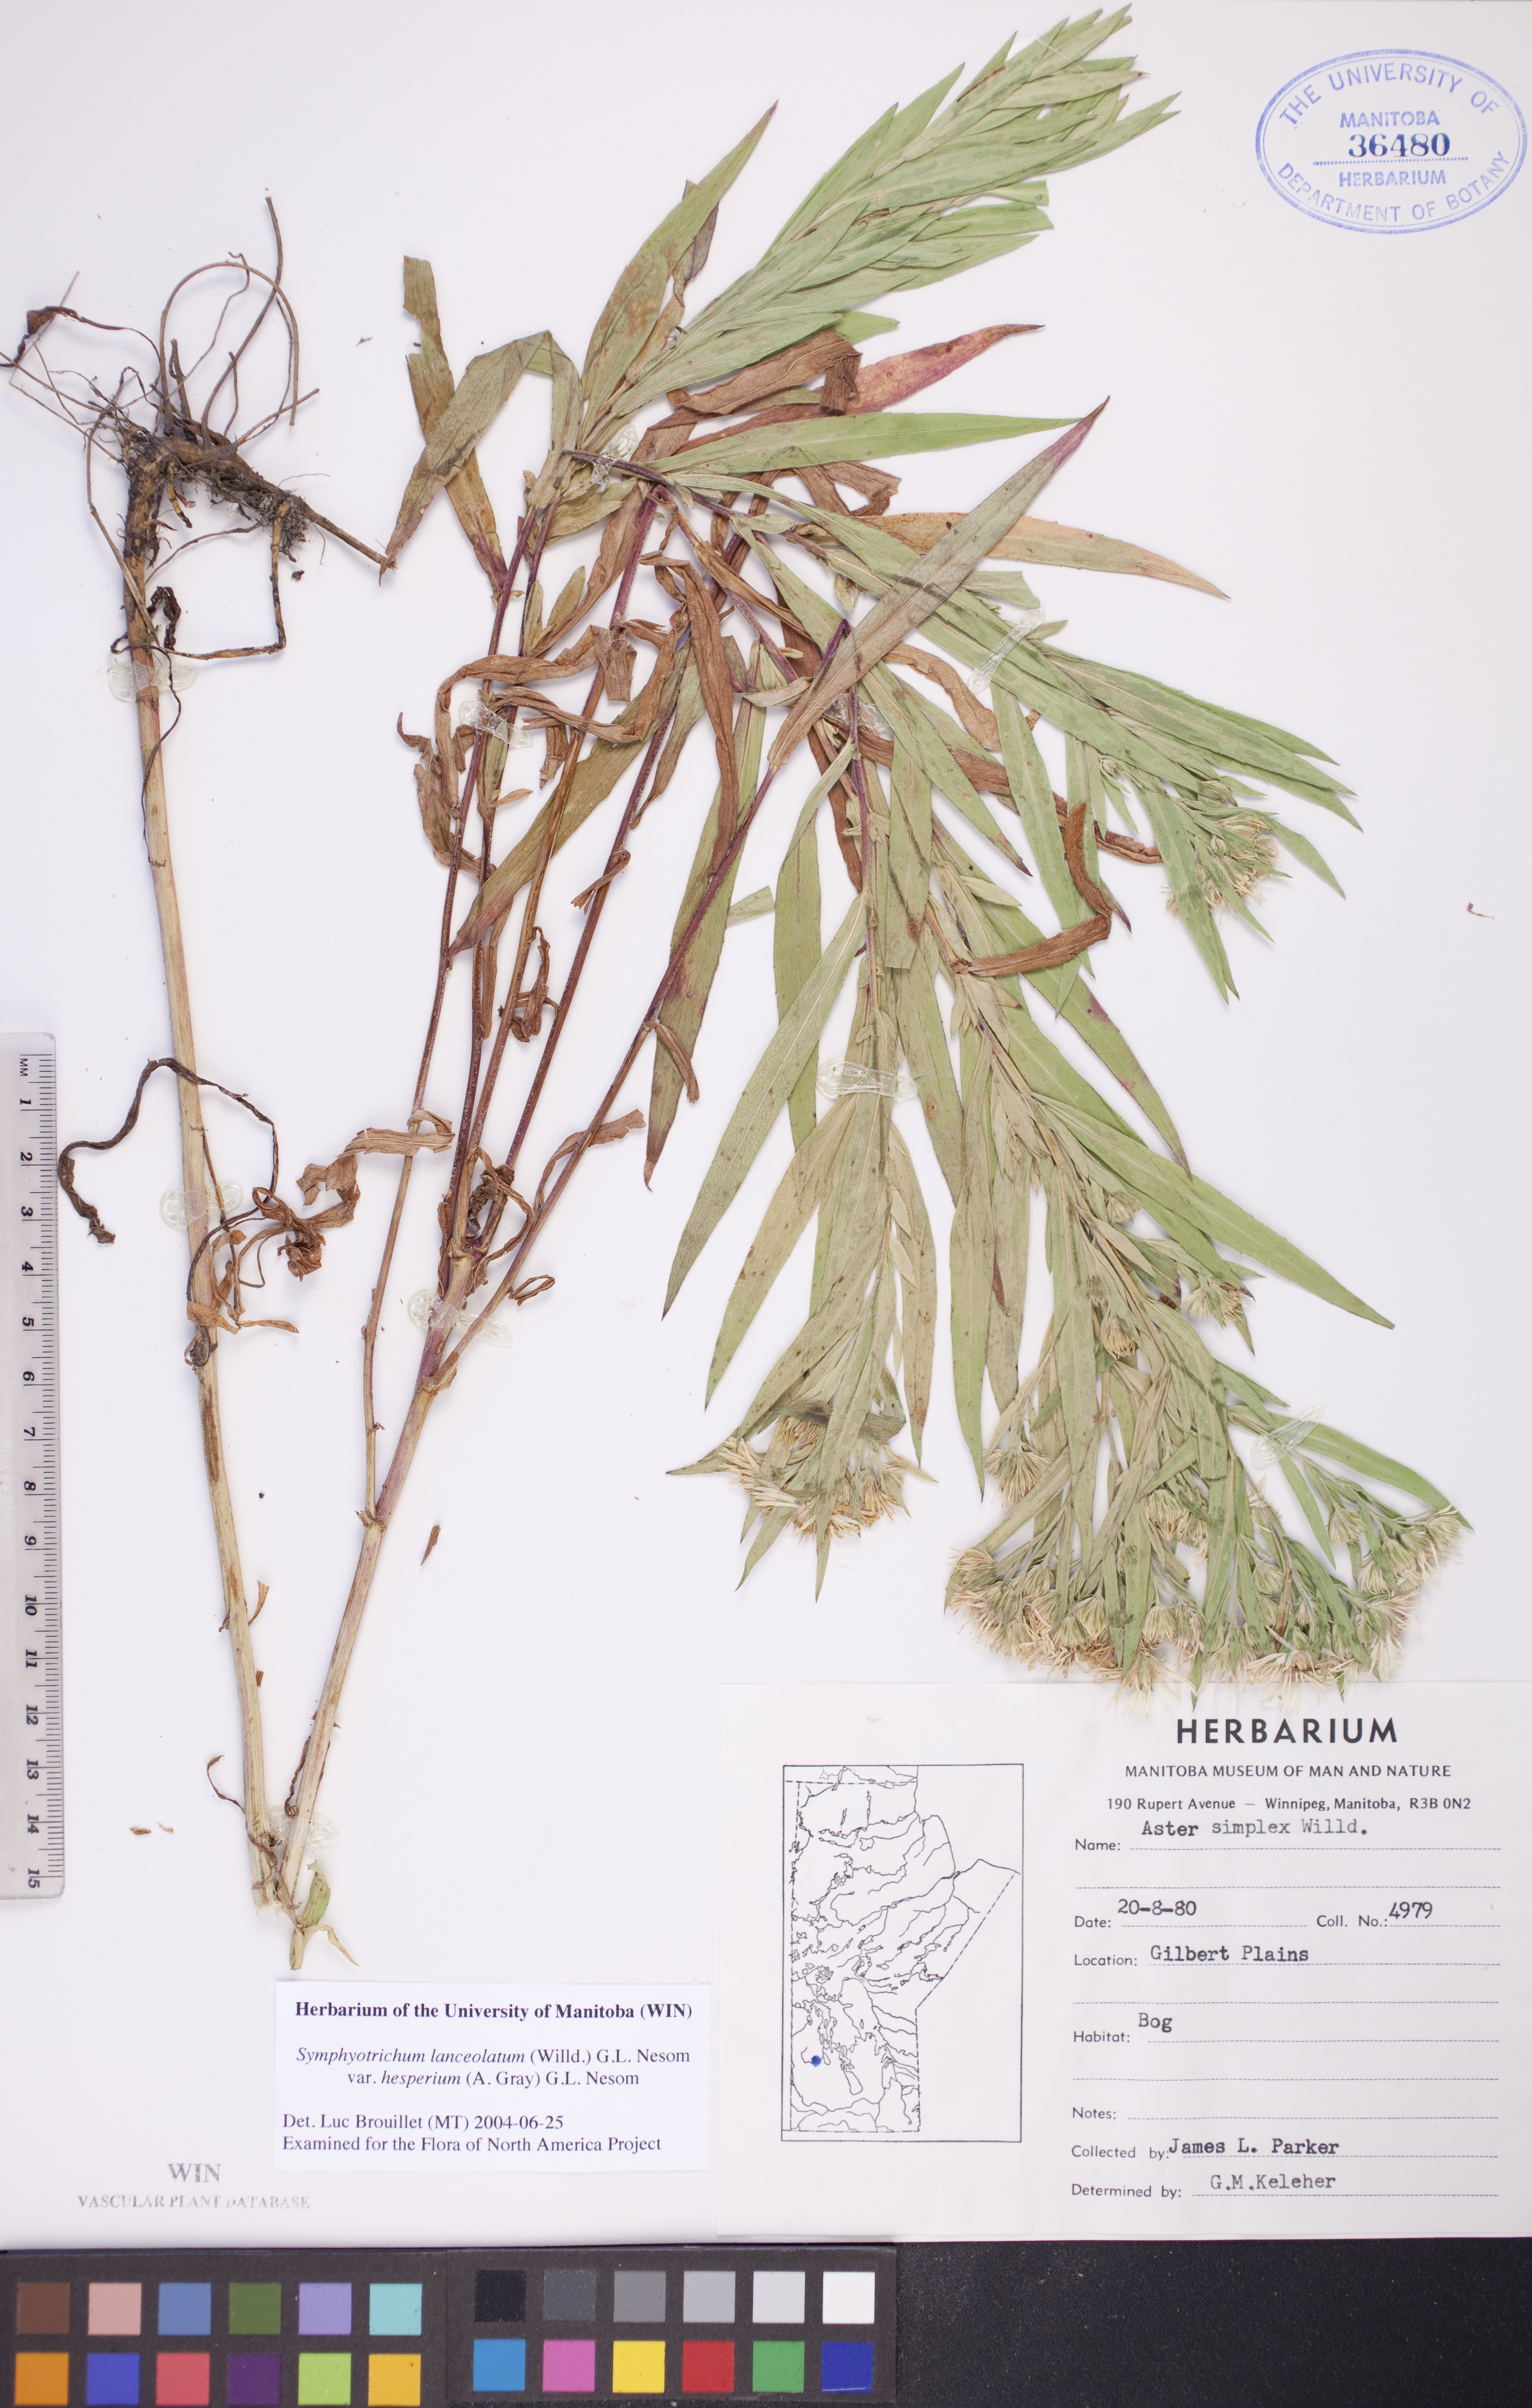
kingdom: Plantae
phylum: Tracheophyta
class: Magnoliopsida
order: Asterales
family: Asteraceae
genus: Symphyotrichum
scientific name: Symphyotrichum lanceolatum
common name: Panicled aster
